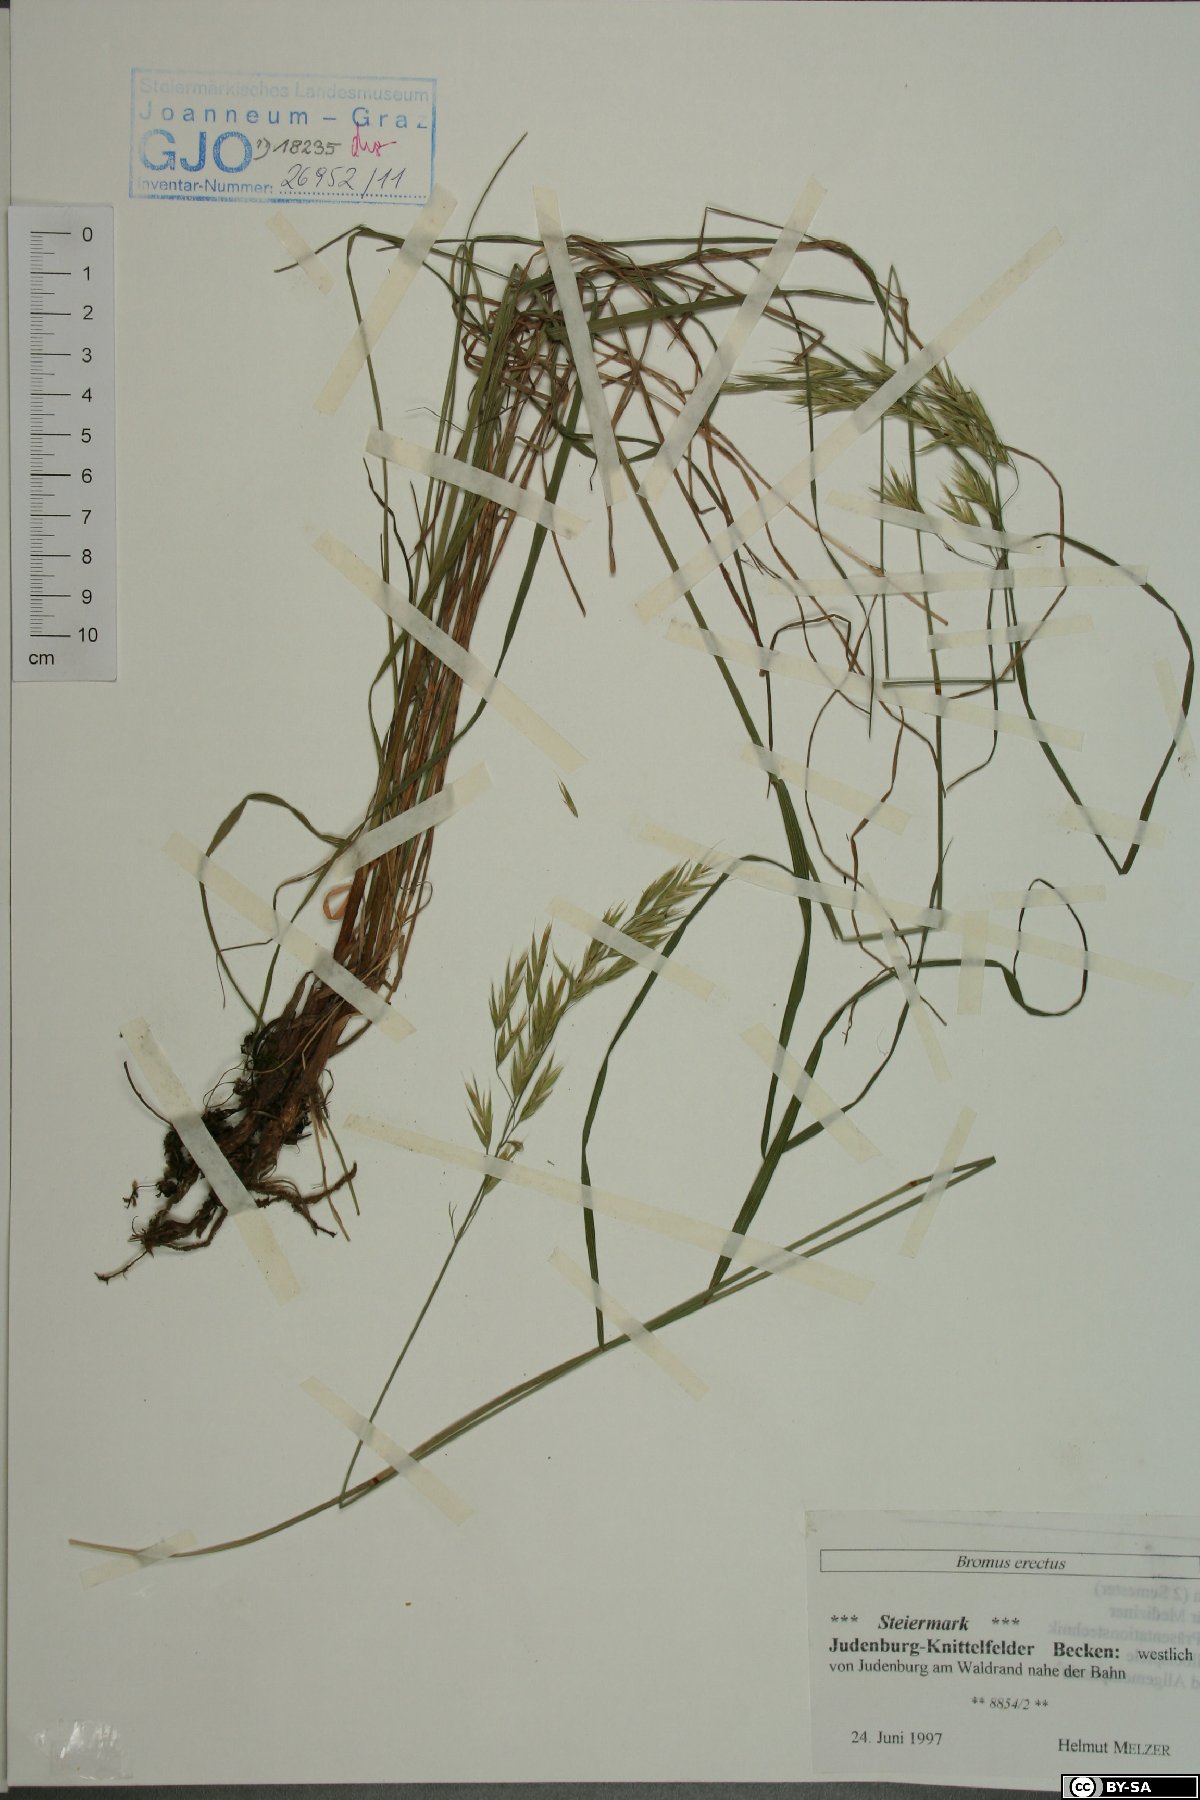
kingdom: Plantae
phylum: Tracheophyta
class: Liliopsida
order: Poales
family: Poaceae
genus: Bromus
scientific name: Bromus erectus
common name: Erect brome
